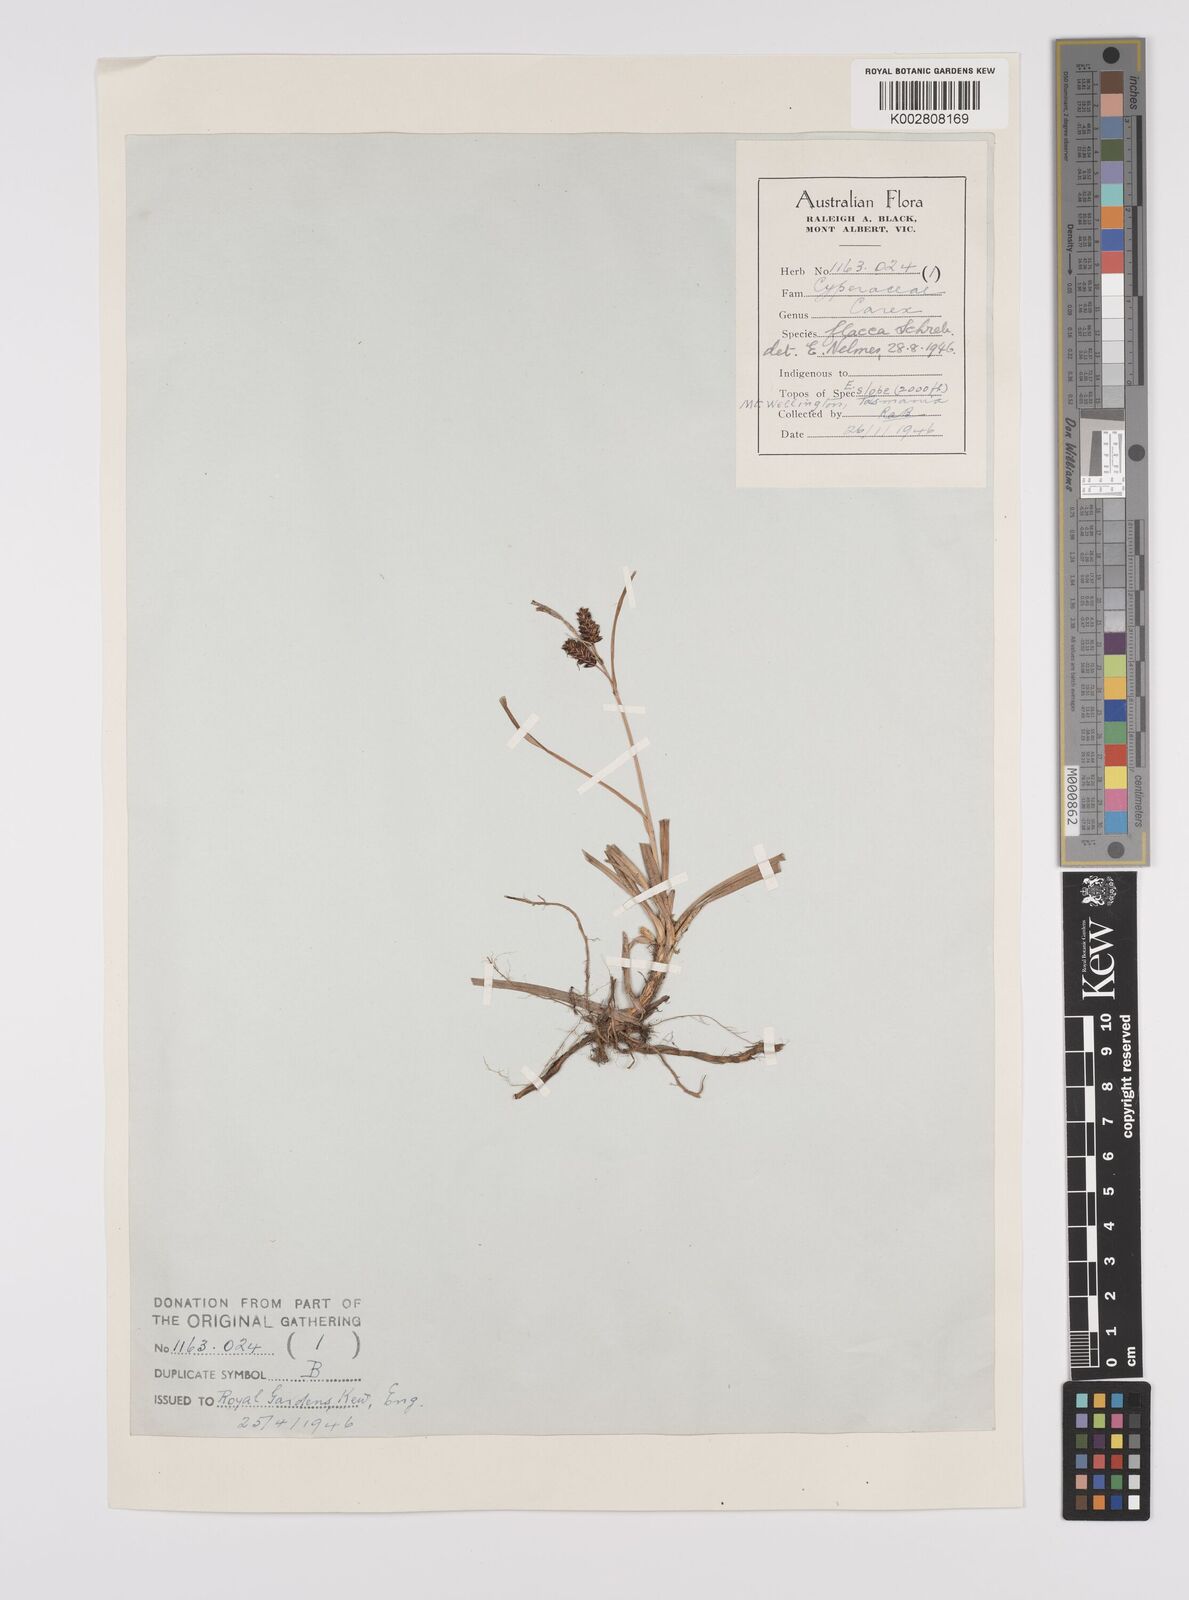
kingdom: Plantae
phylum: Tracheophyta
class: Liliopsida
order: Poales
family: Cyperaceae
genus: Carex
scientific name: Carex flacca
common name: Glaucous sedge
